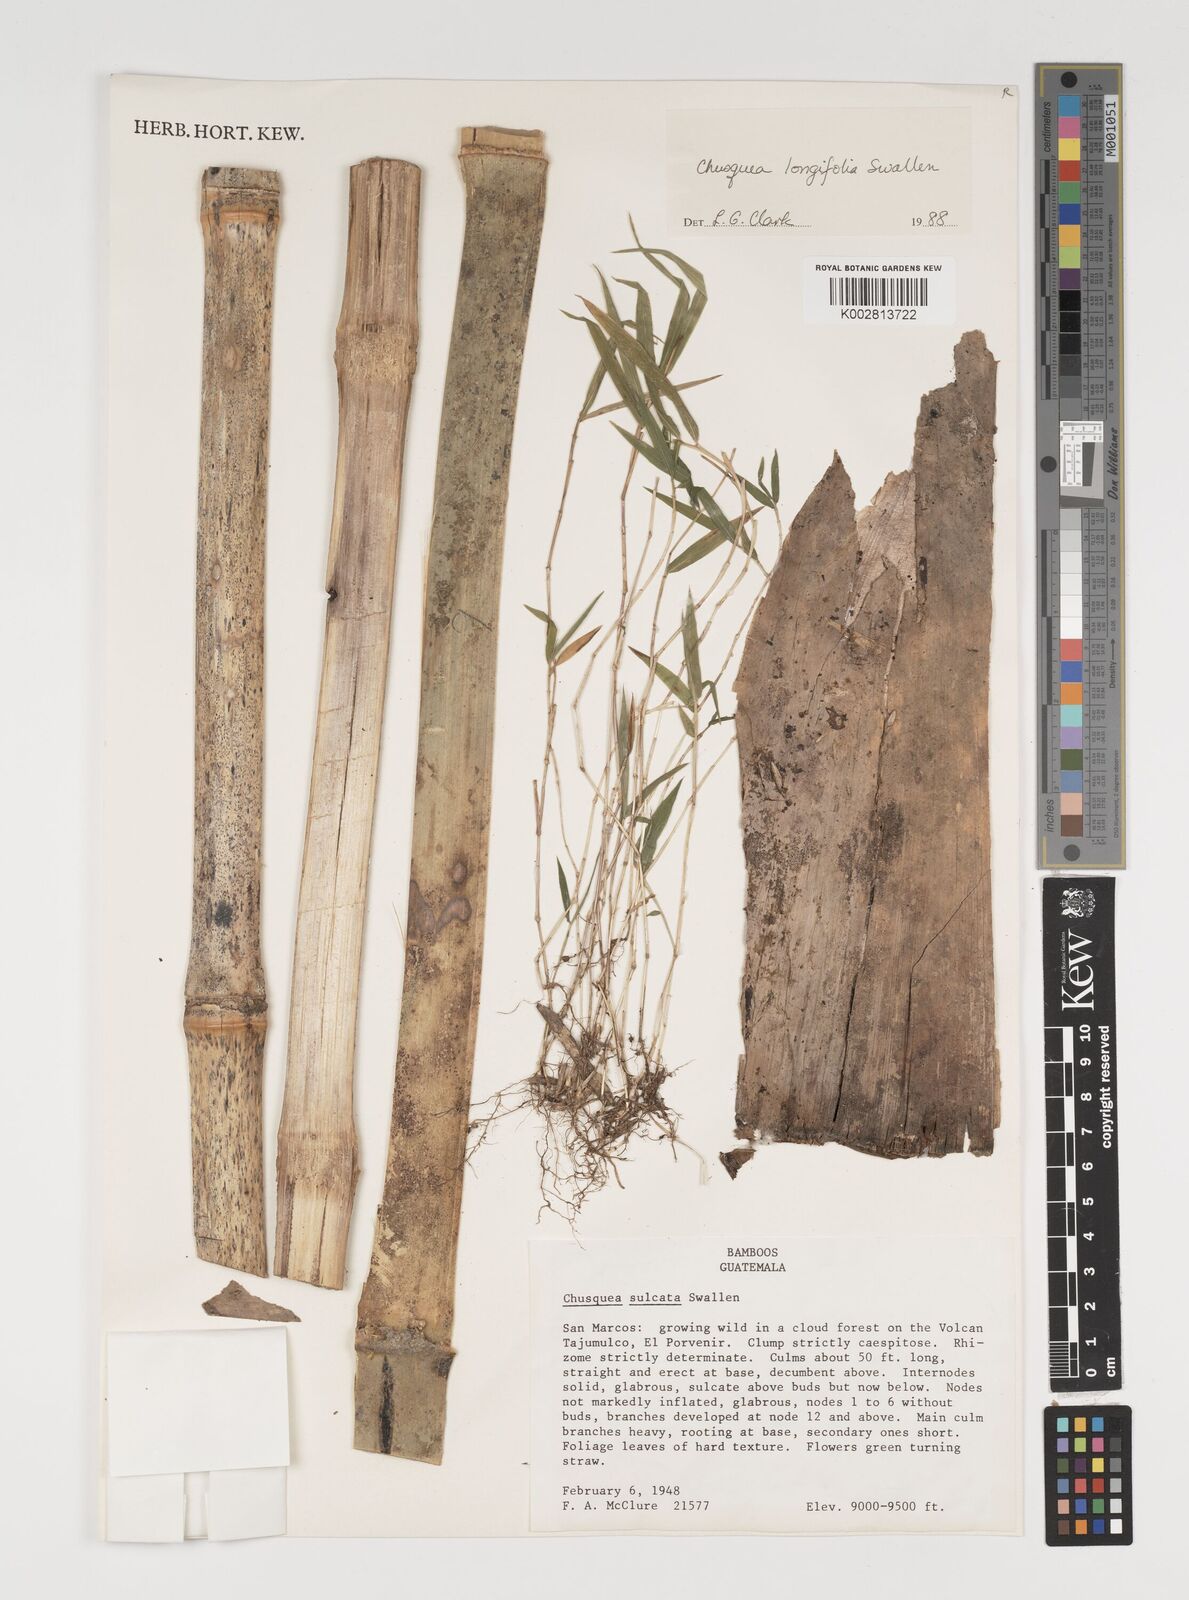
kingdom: Plantae
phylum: Tracheophyta
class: Liliopsida
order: Poales
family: Poaceae
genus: Chusquea
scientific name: Chusquea longifolia
